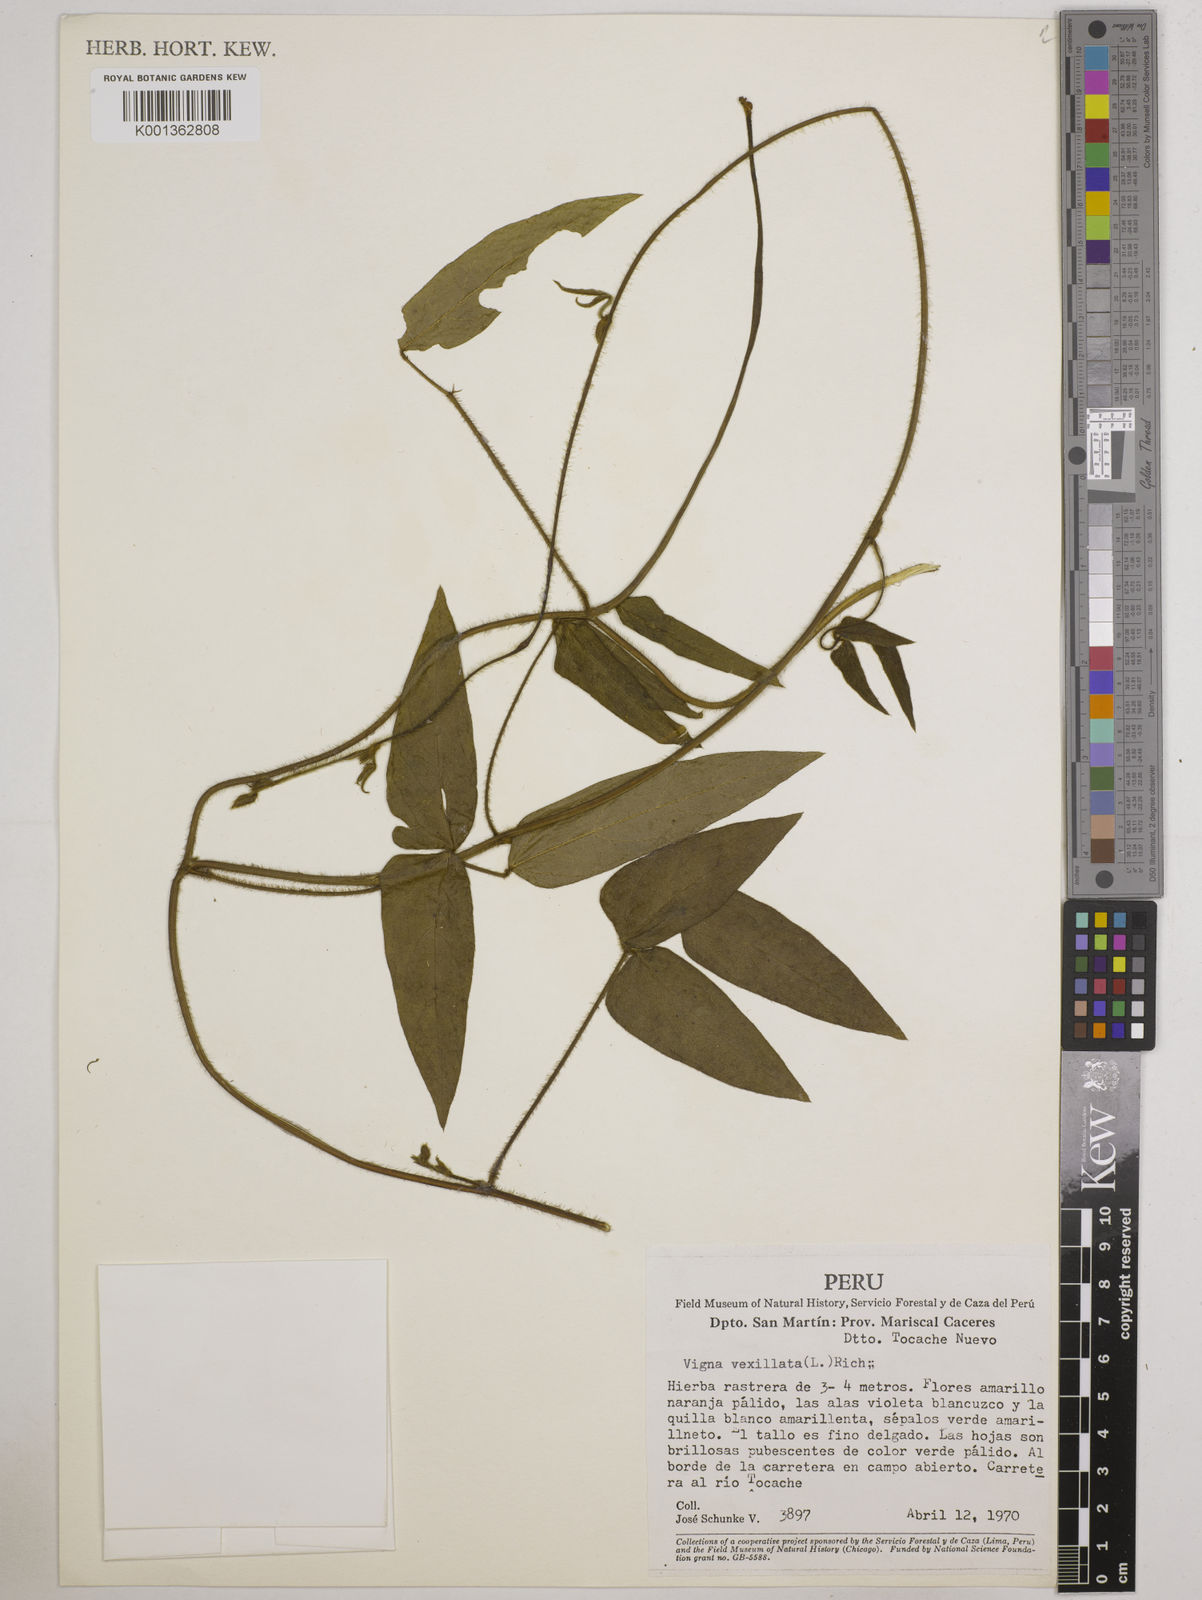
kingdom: Plantae
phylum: Tracheophyta
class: Magnoliopsida
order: Fabales
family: Fabaceae
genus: Vigna
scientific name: Vigna vexillata
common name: Zombi pea
